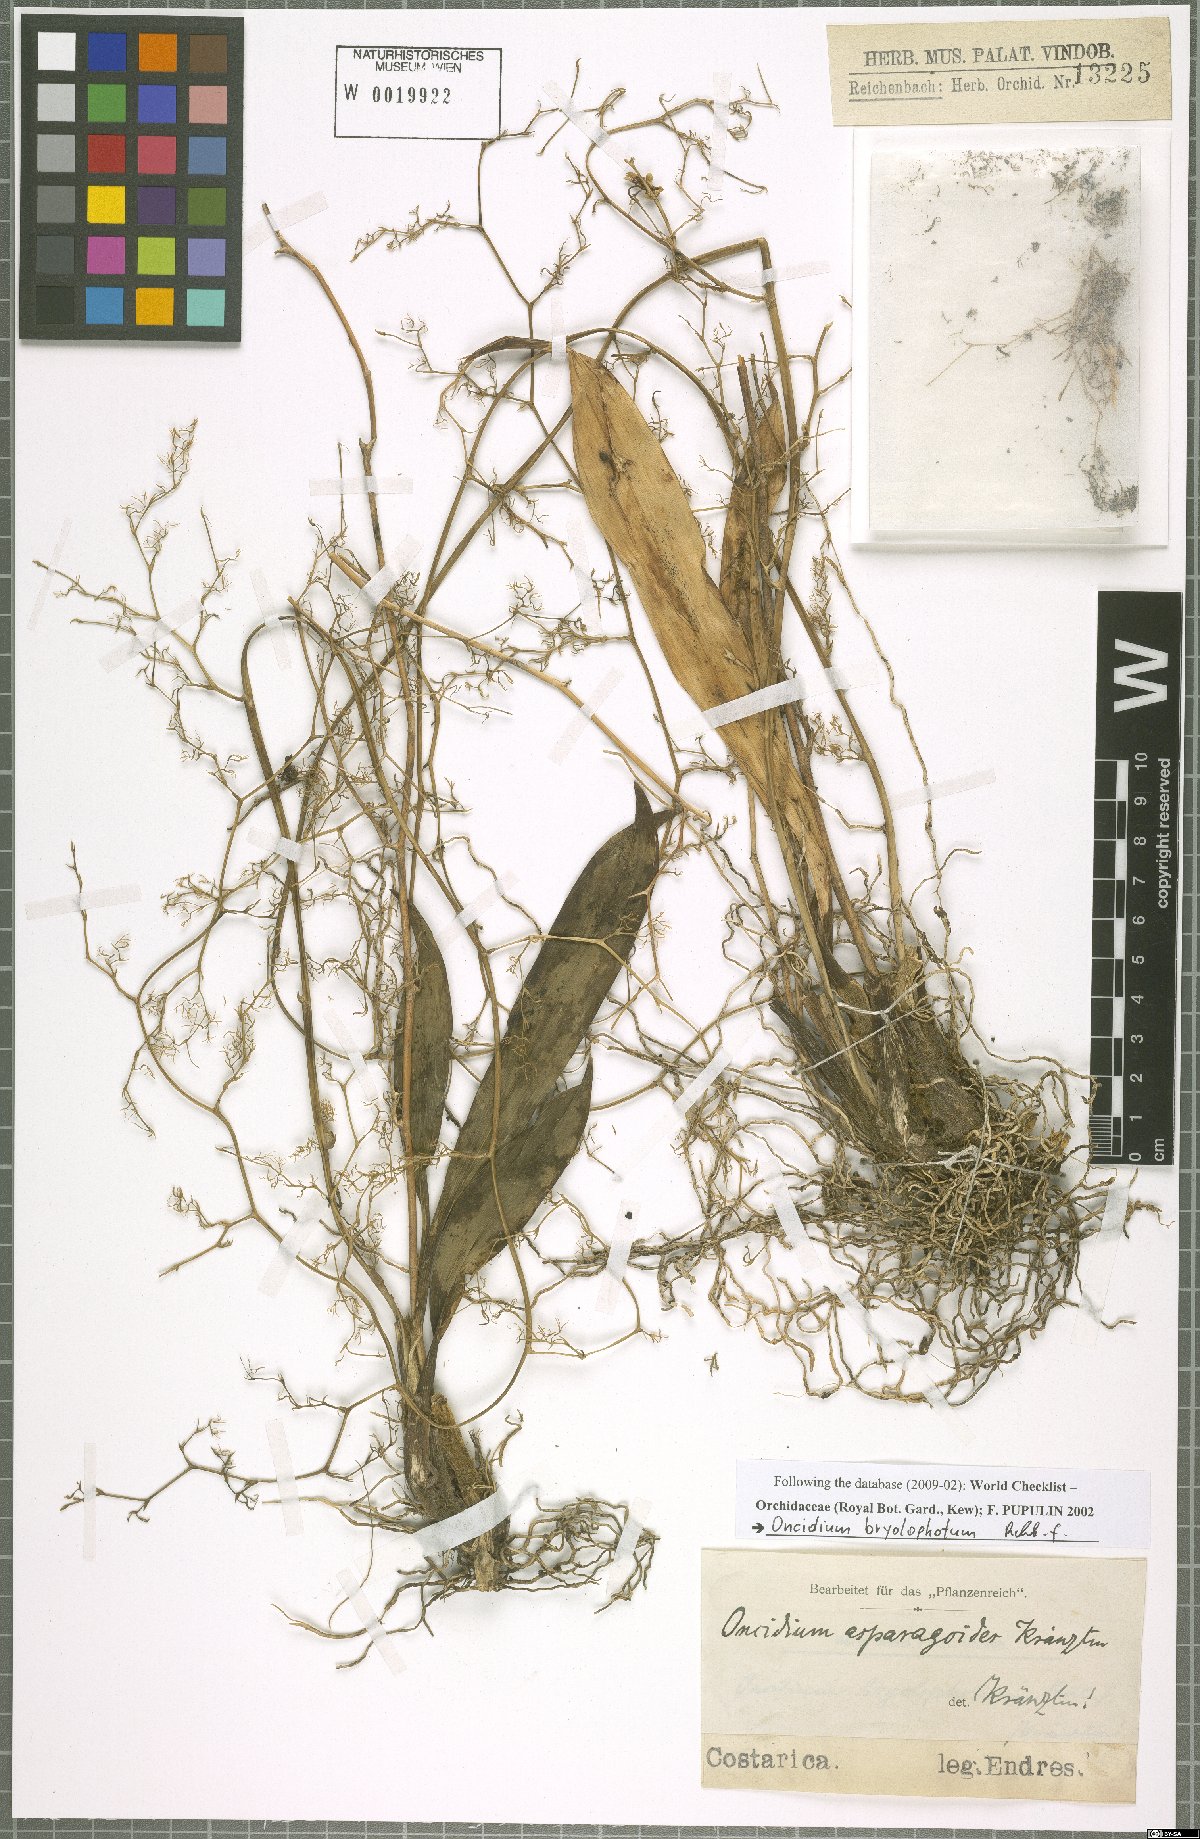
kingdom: Plantae
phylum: Tracheophyta
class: Liliopsida
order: Asparagales
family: Orchidaceae
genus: Oncidium
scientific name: Oncidium bryolophotum
